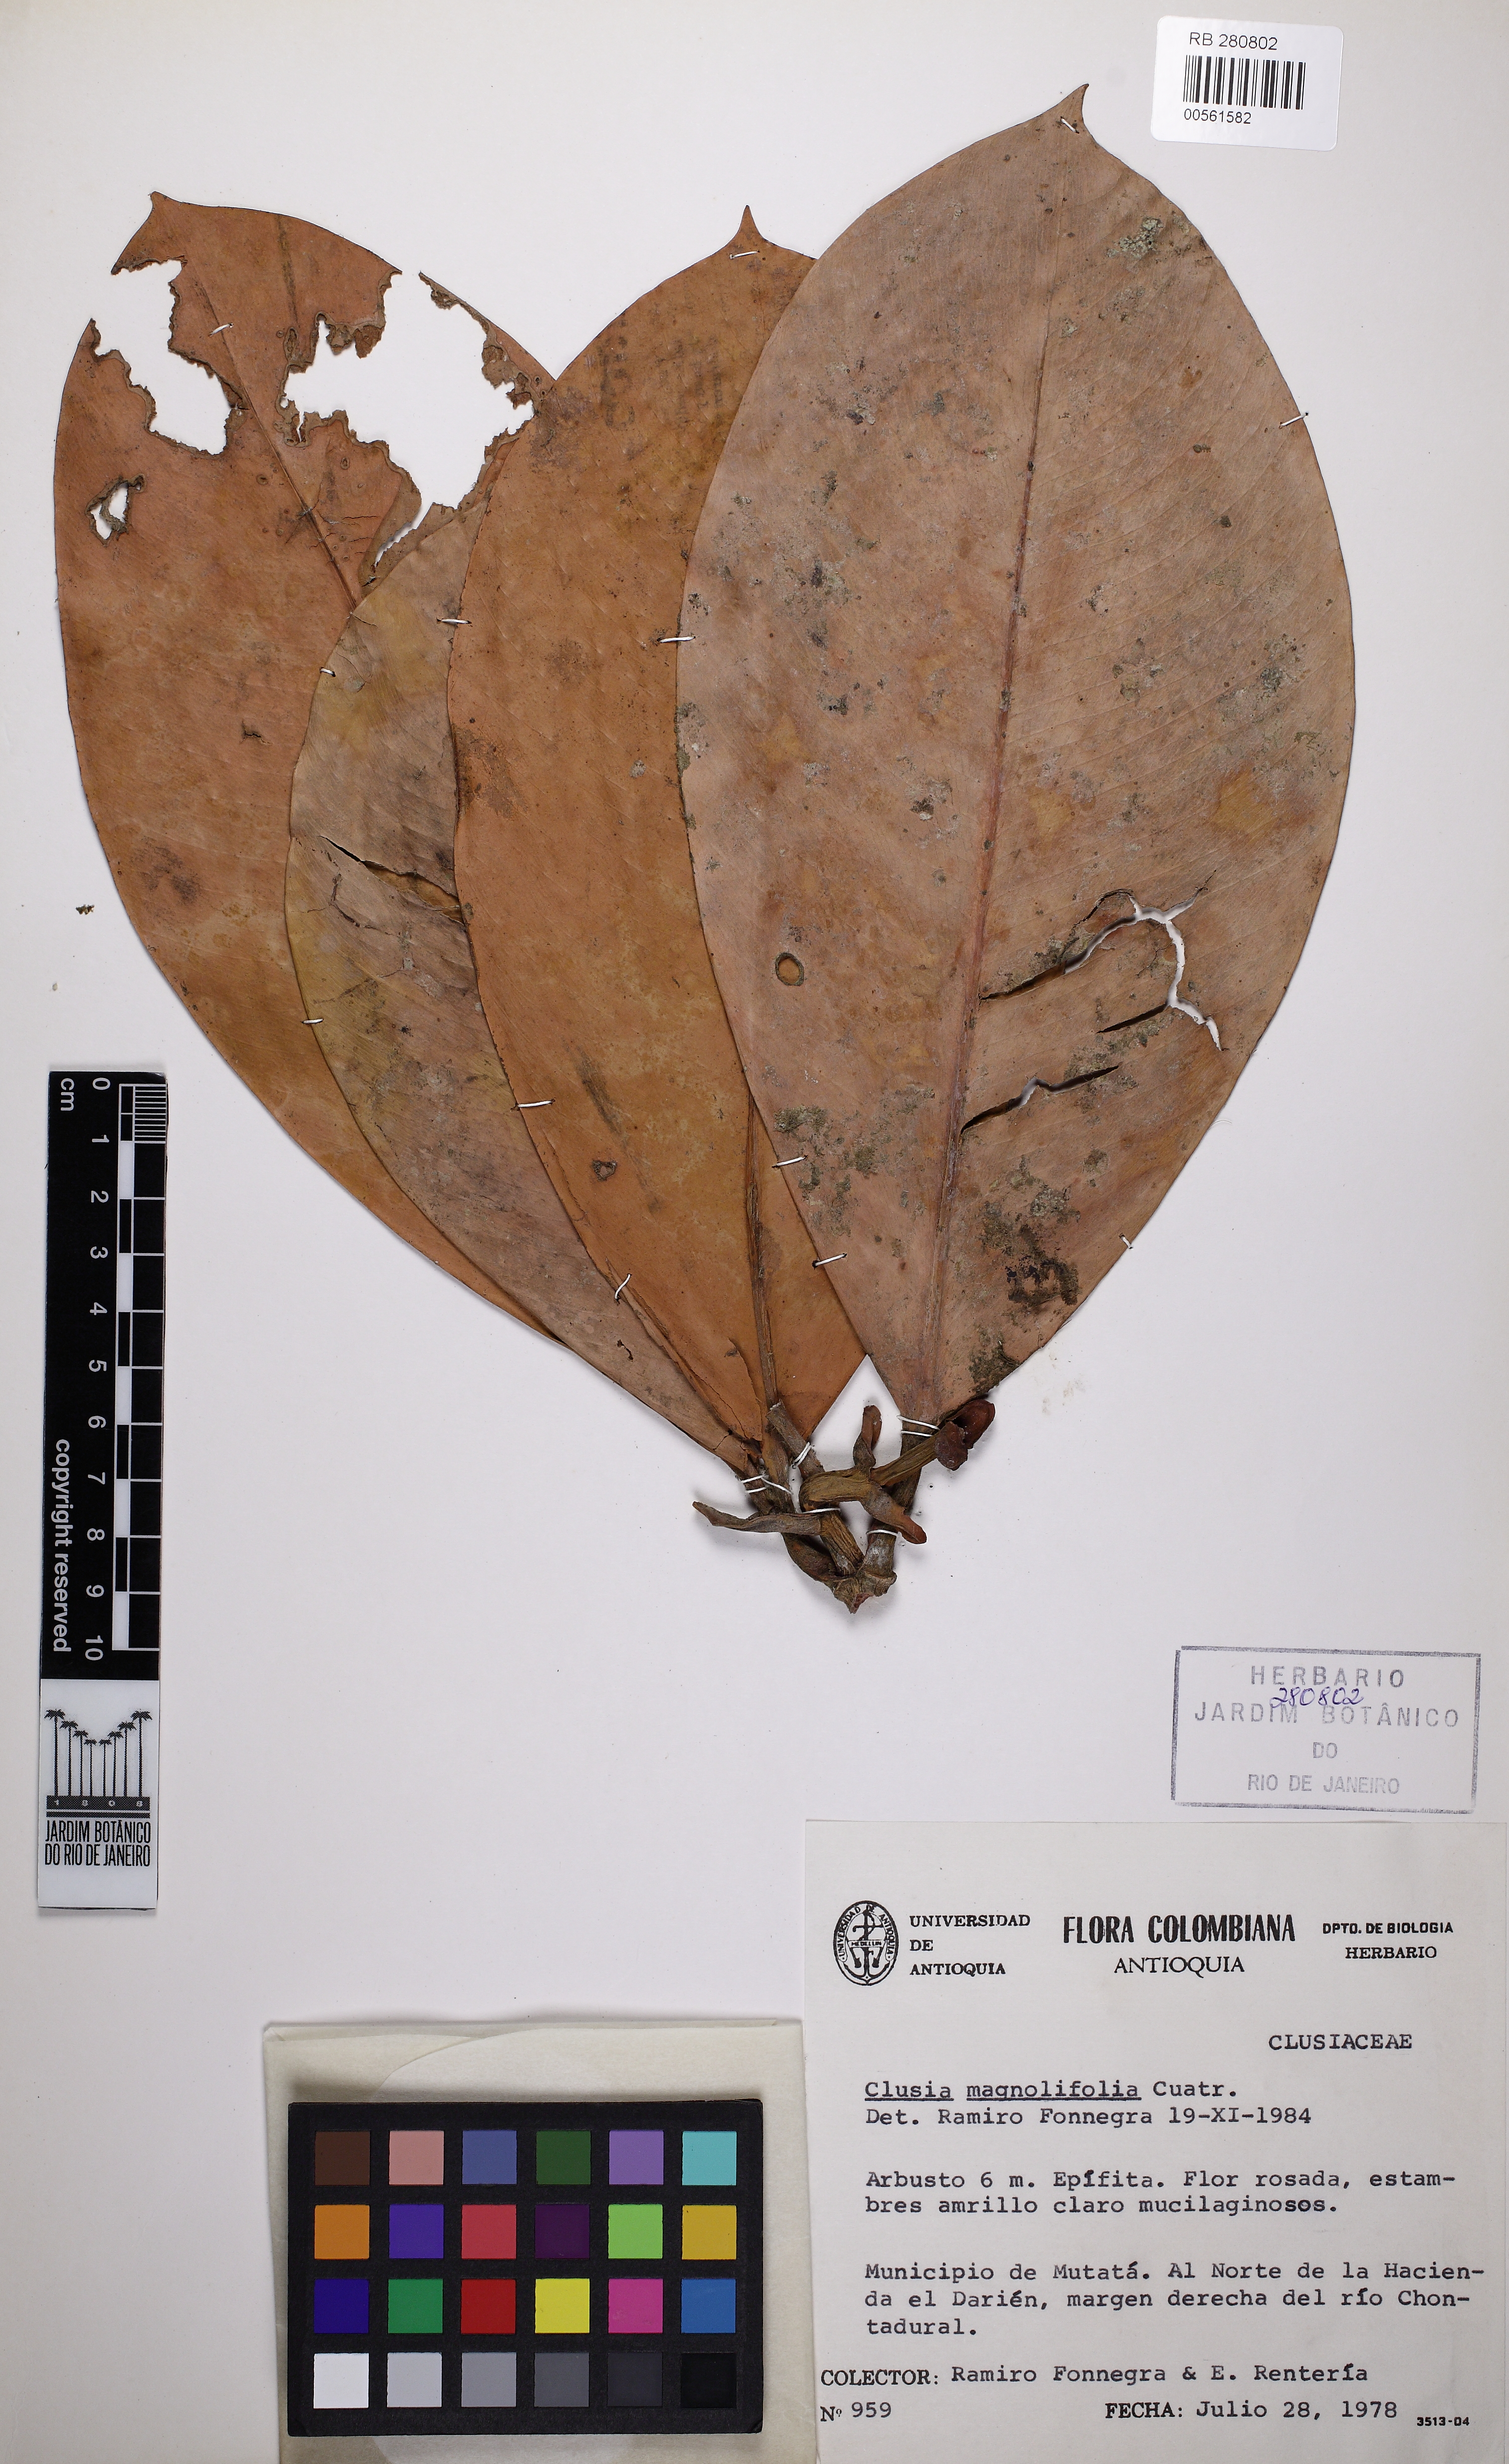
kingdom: Plantae
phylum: Tracheophyta
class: Magnoliopsida
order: Malpighiales
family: Clusiaceae
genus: Clusia
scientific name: Clusia magnifolia
